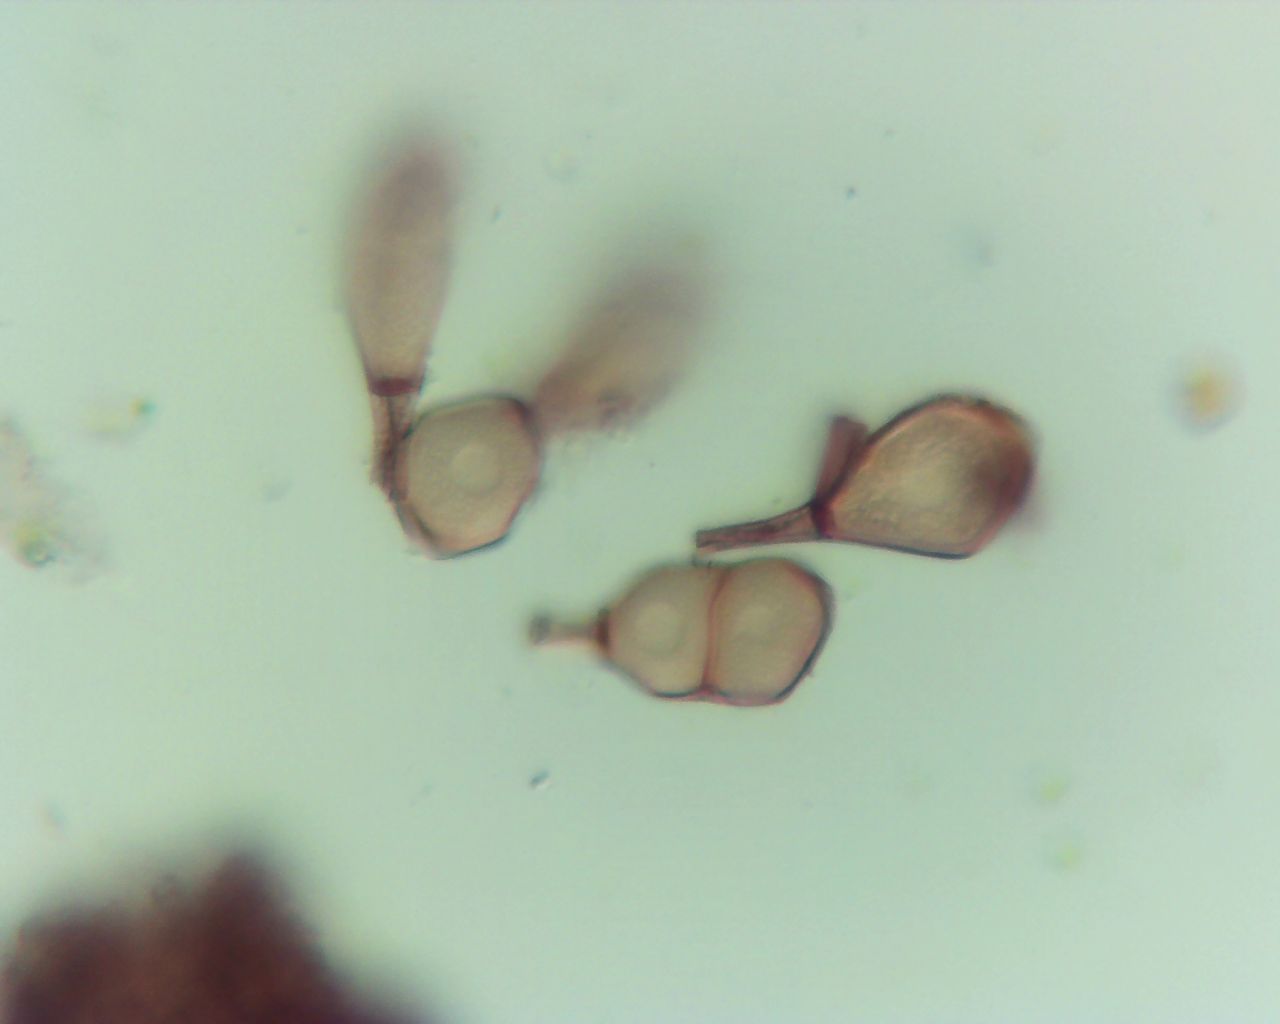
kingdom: Fungi
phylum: Basidiomycota
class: Pucciniomycetes
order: Pucciniales
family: Pucciniaceae
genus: Peristemma
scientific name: Peristemma pseudosphaeria
